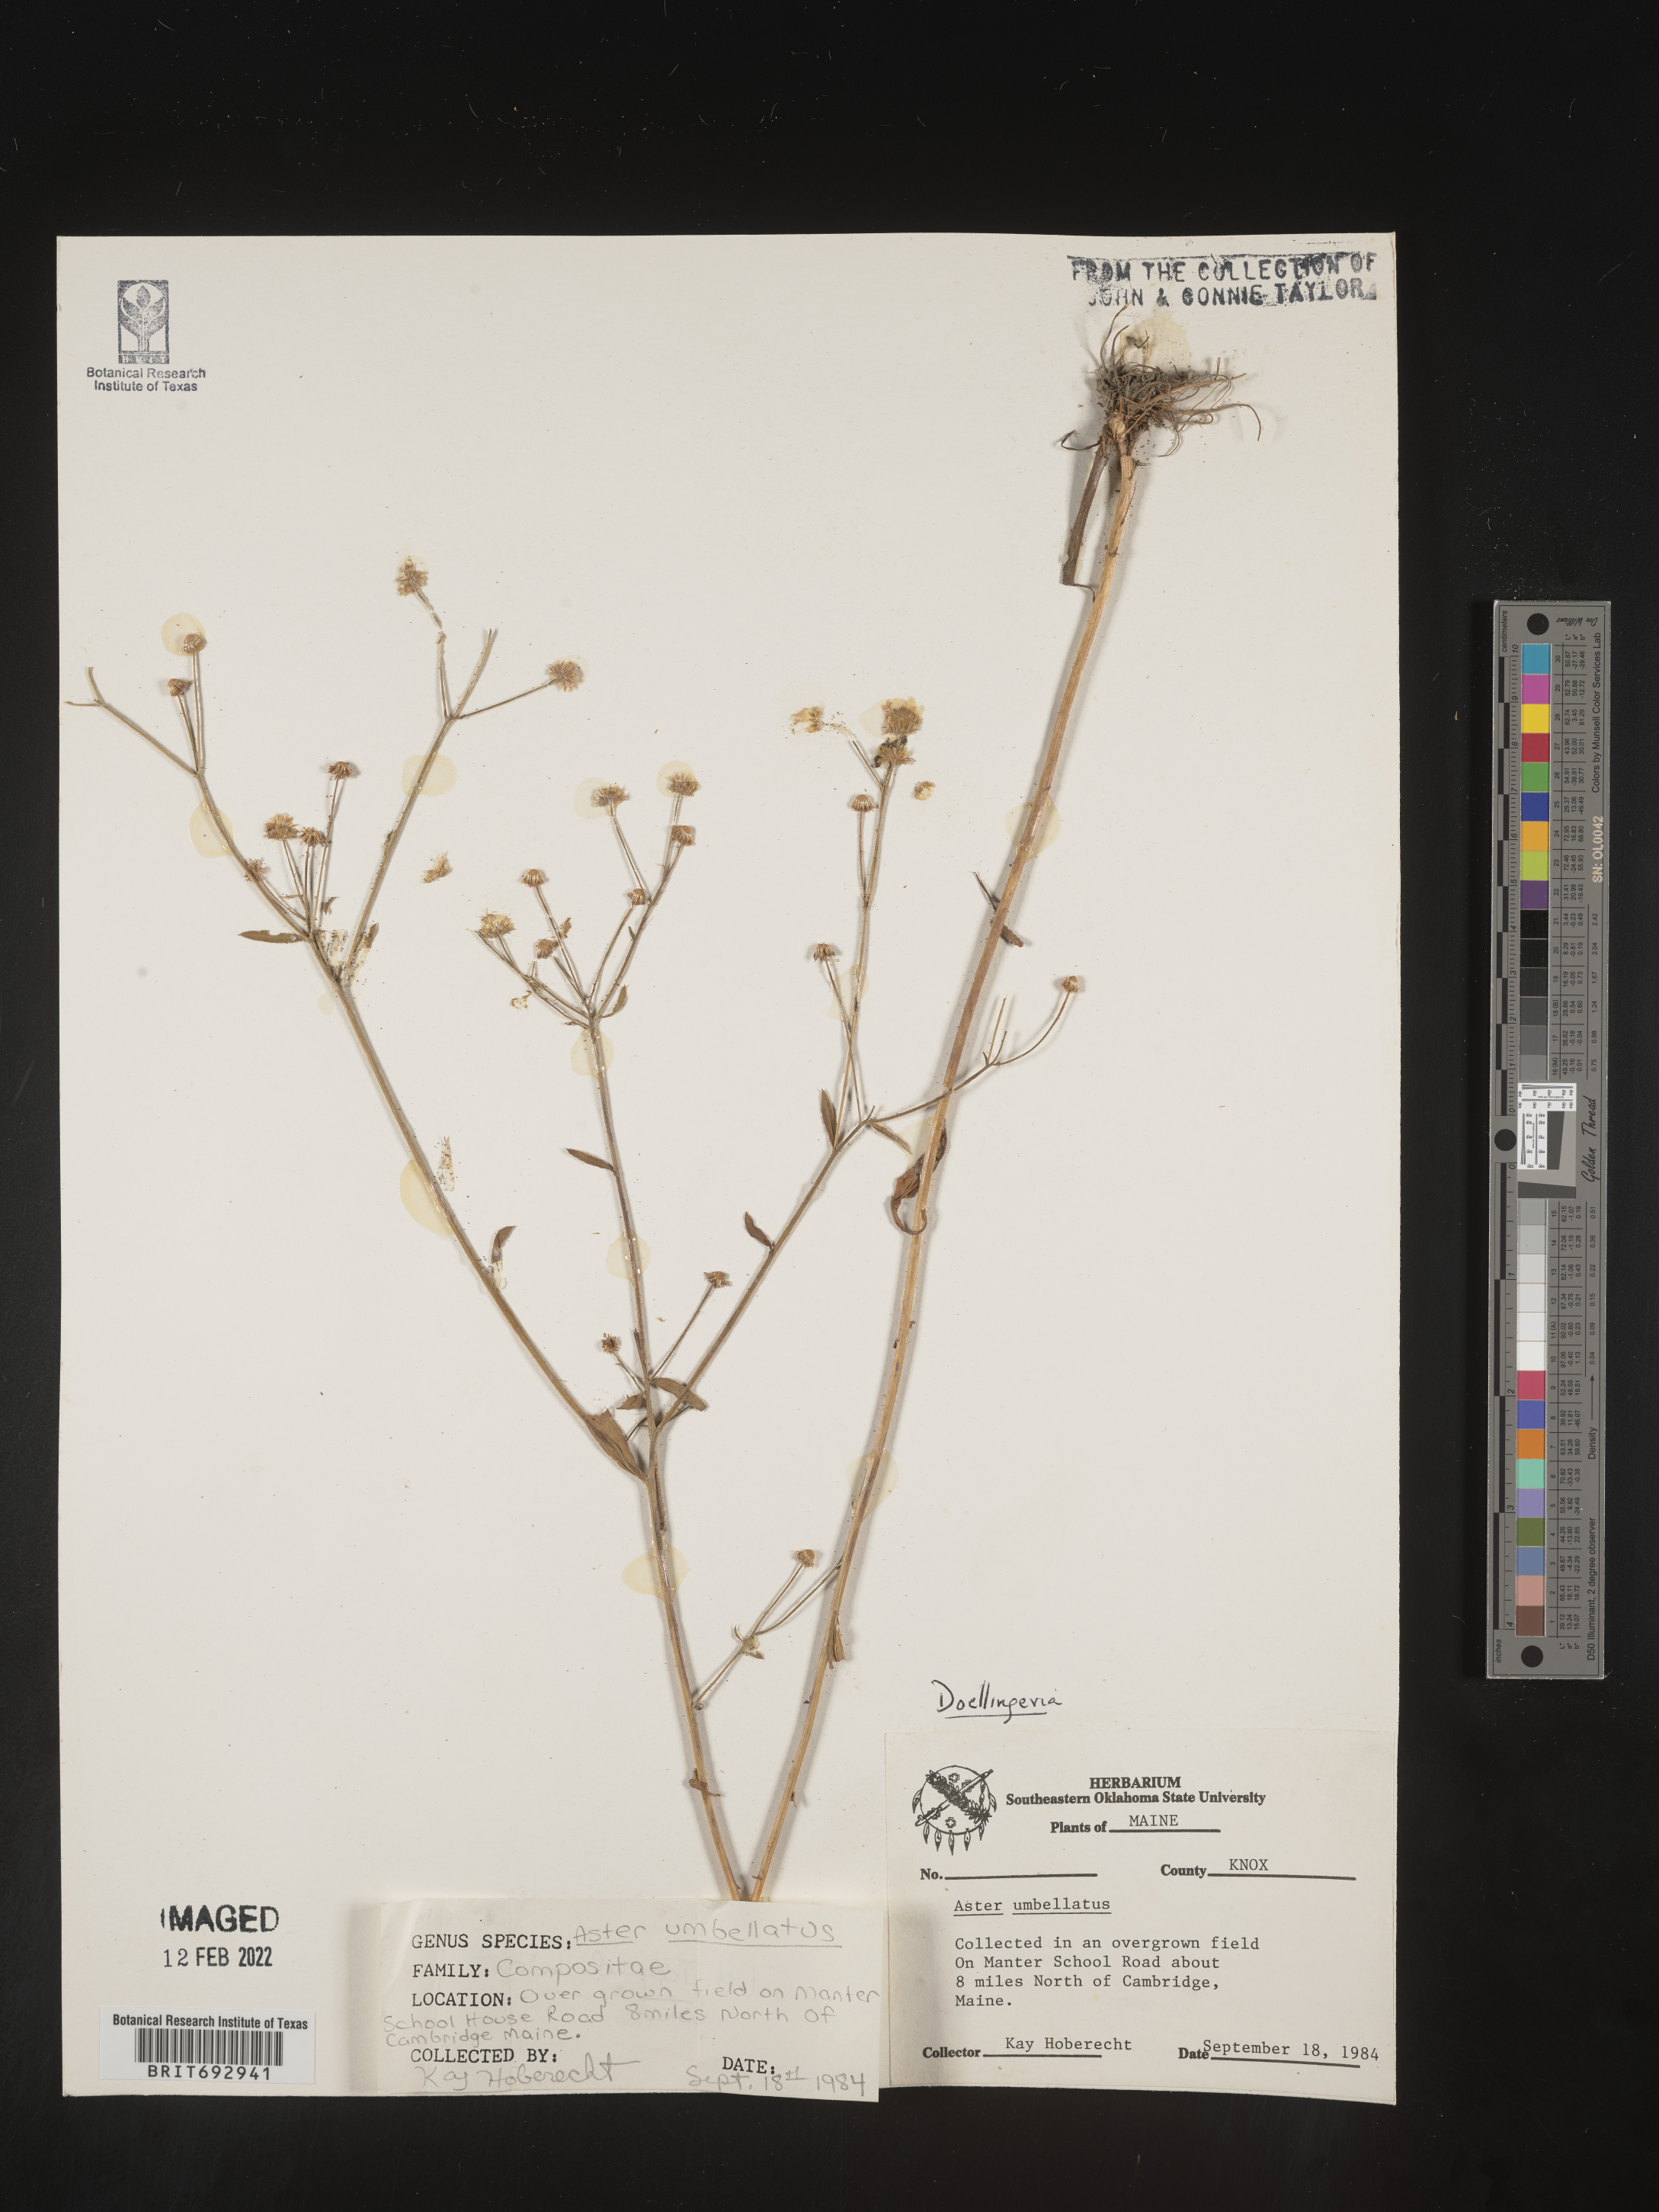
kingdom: Plantae
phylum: Tracheophyta
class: Magnoliopsida
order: Asterales
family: Asteraceae
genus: Doellingeria
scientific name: Doellingeria umbellata
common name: Flat-top white aster
